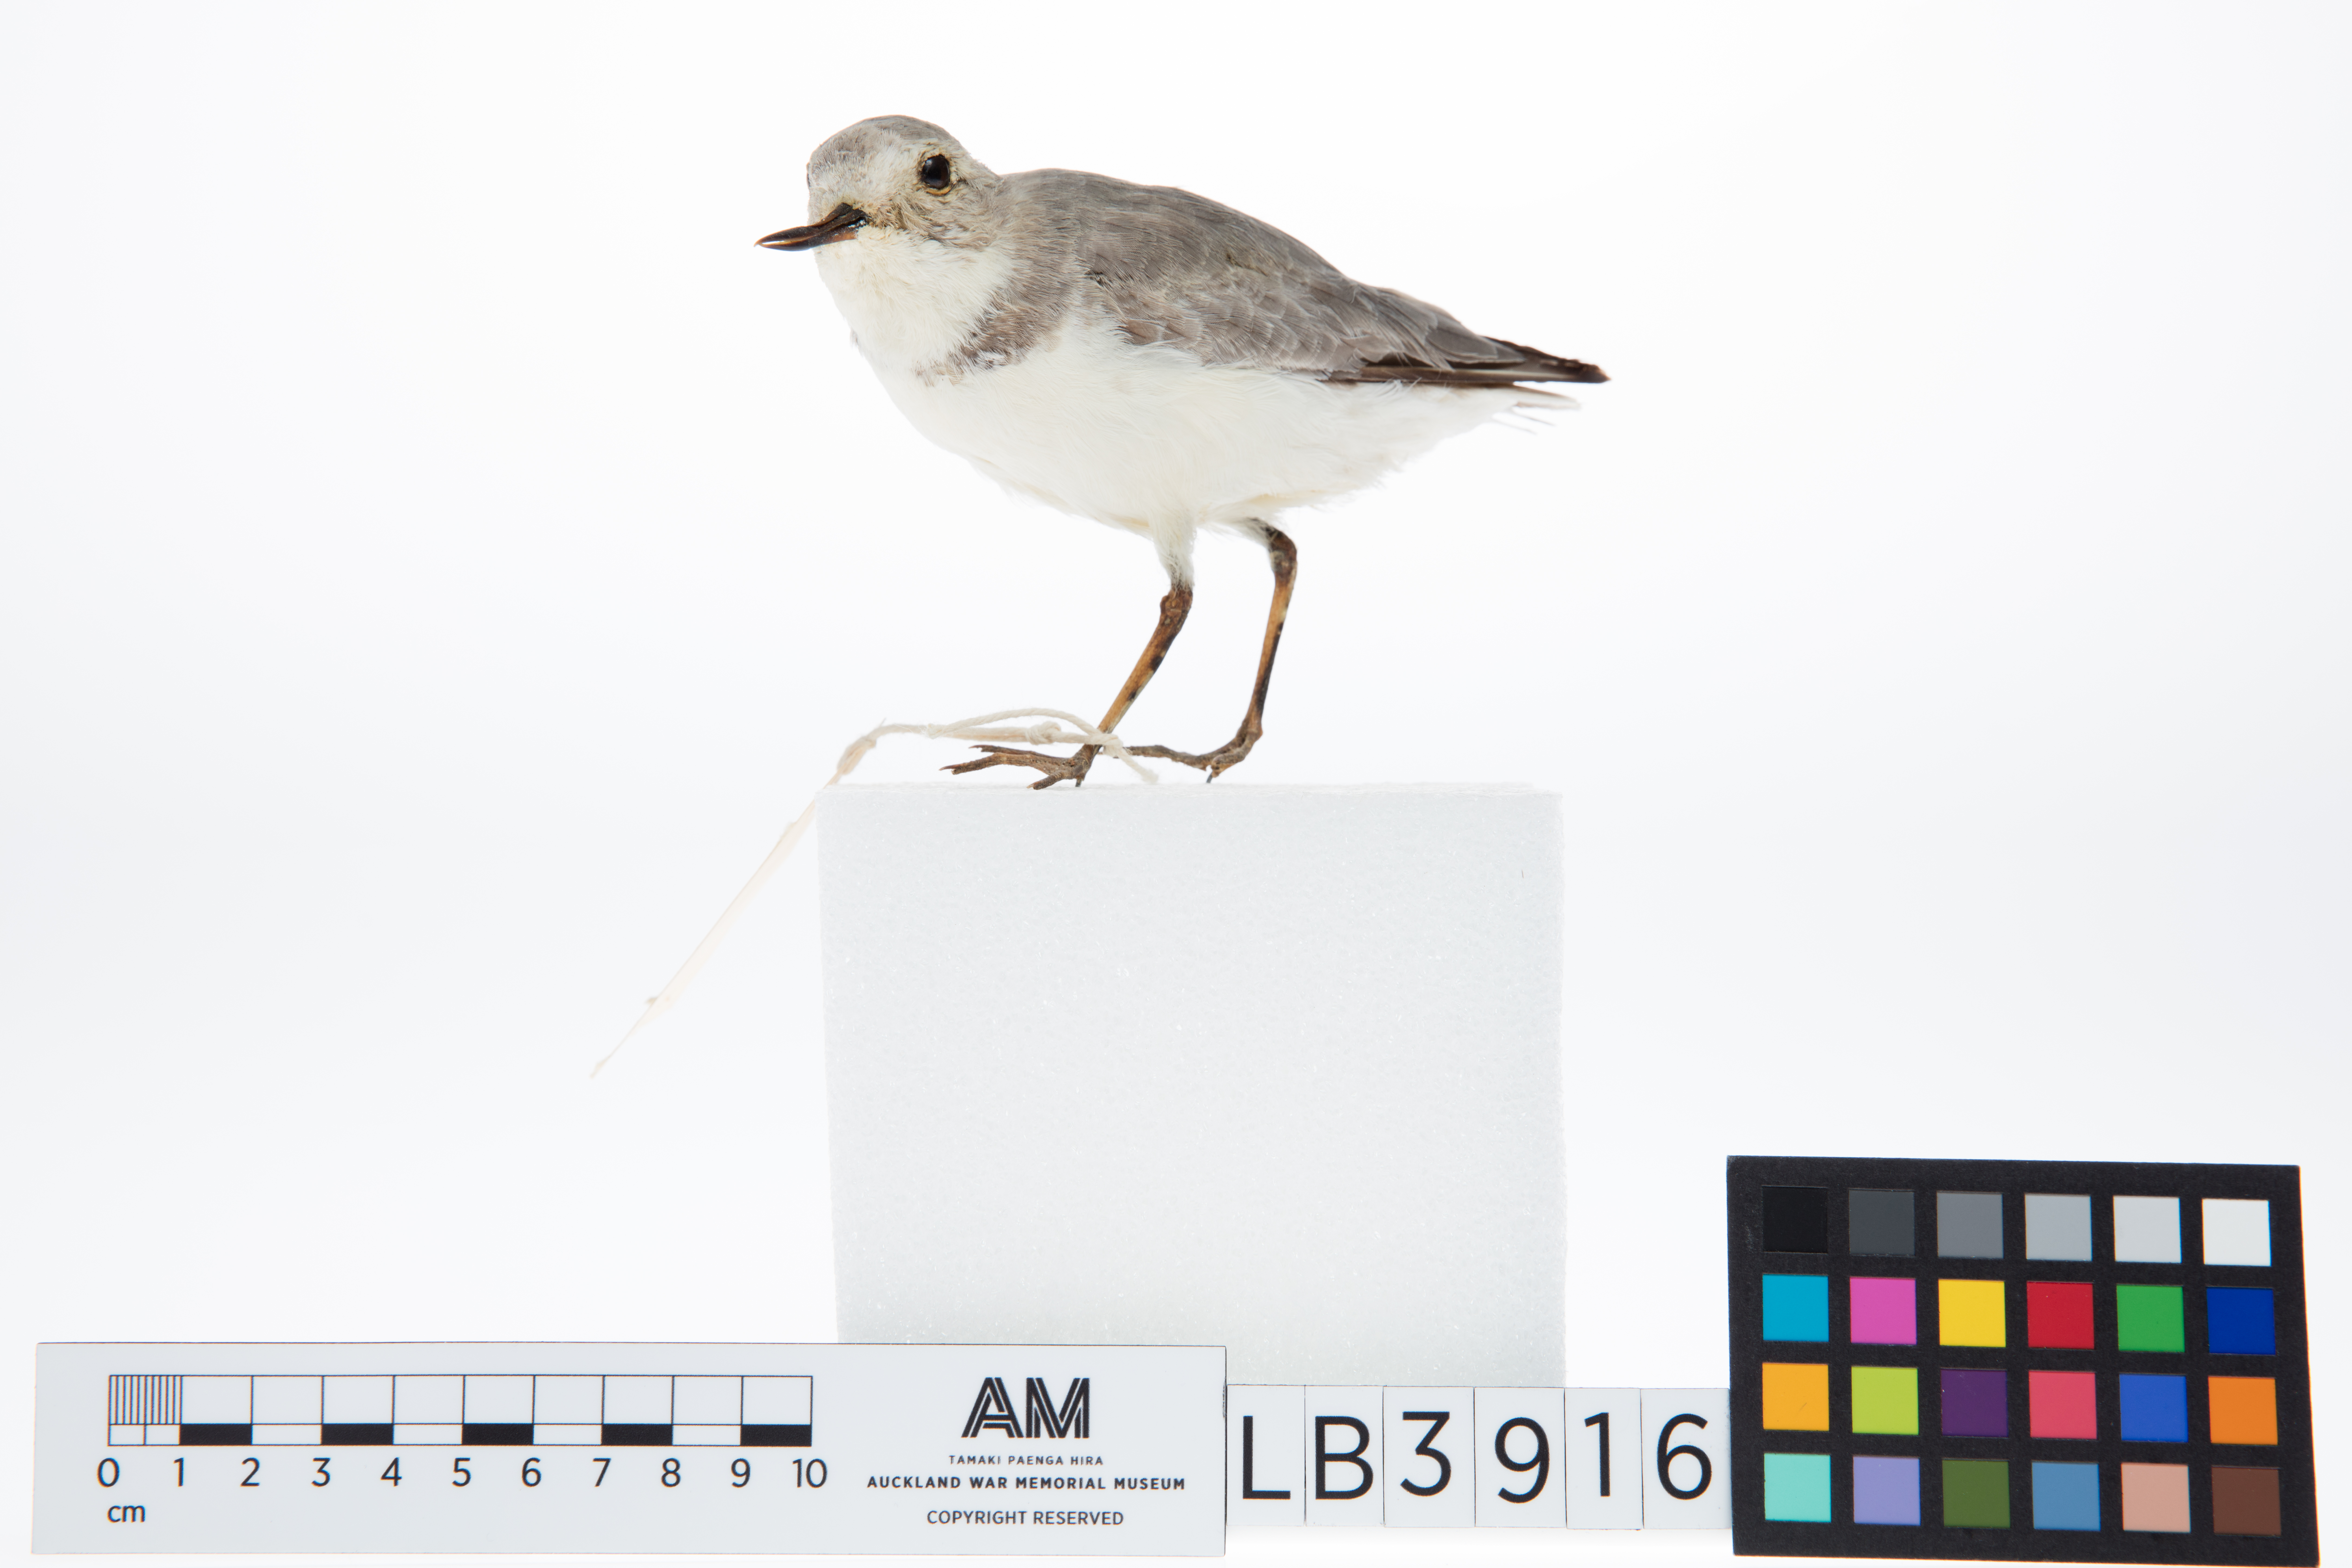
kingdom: Animalia
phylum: Chordata
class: Aves
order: Charadriiformes
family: Charadriidae
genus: Charadrius
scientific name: Charadrius frontalis
